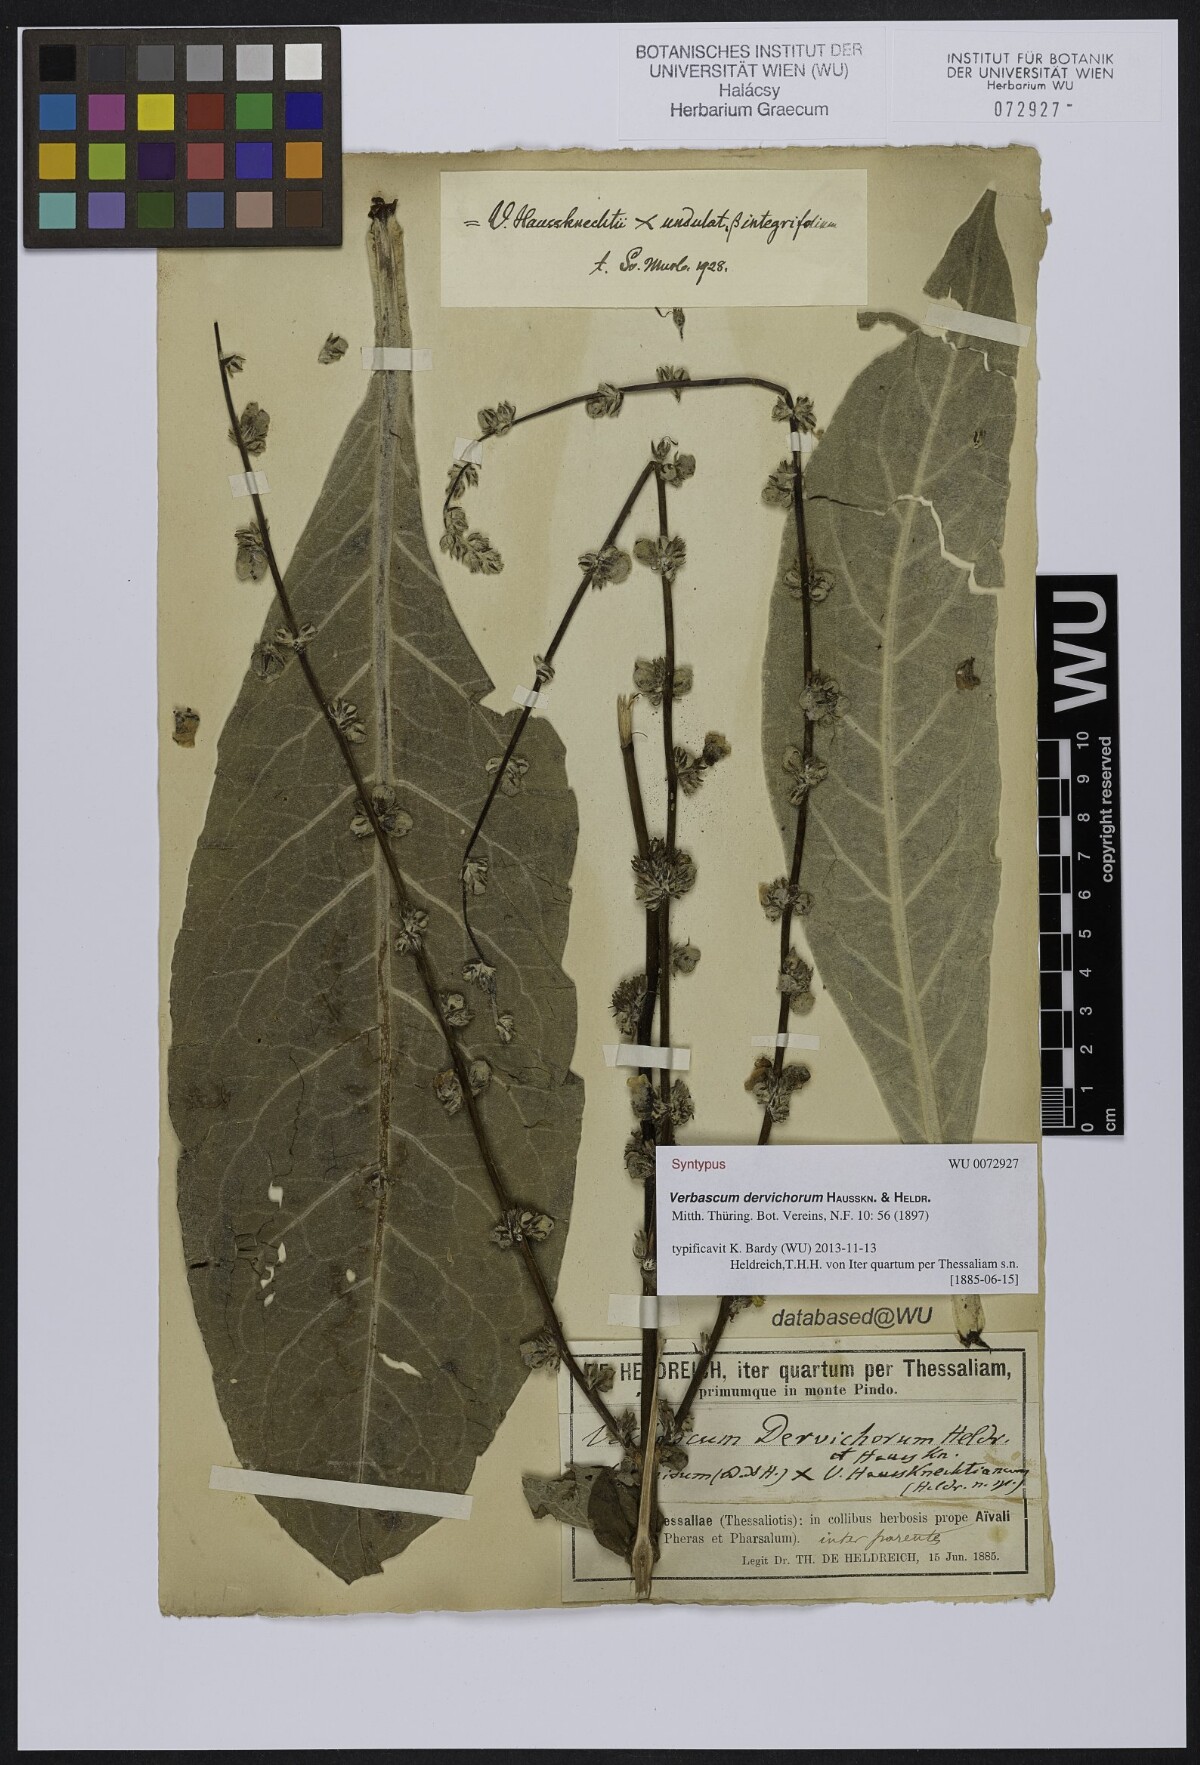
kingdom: Plantae
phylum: Tracheophyta
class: Magnoliopsida
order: Lamiales
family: Scrophulariaceae
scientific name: Scrophulariaceae
